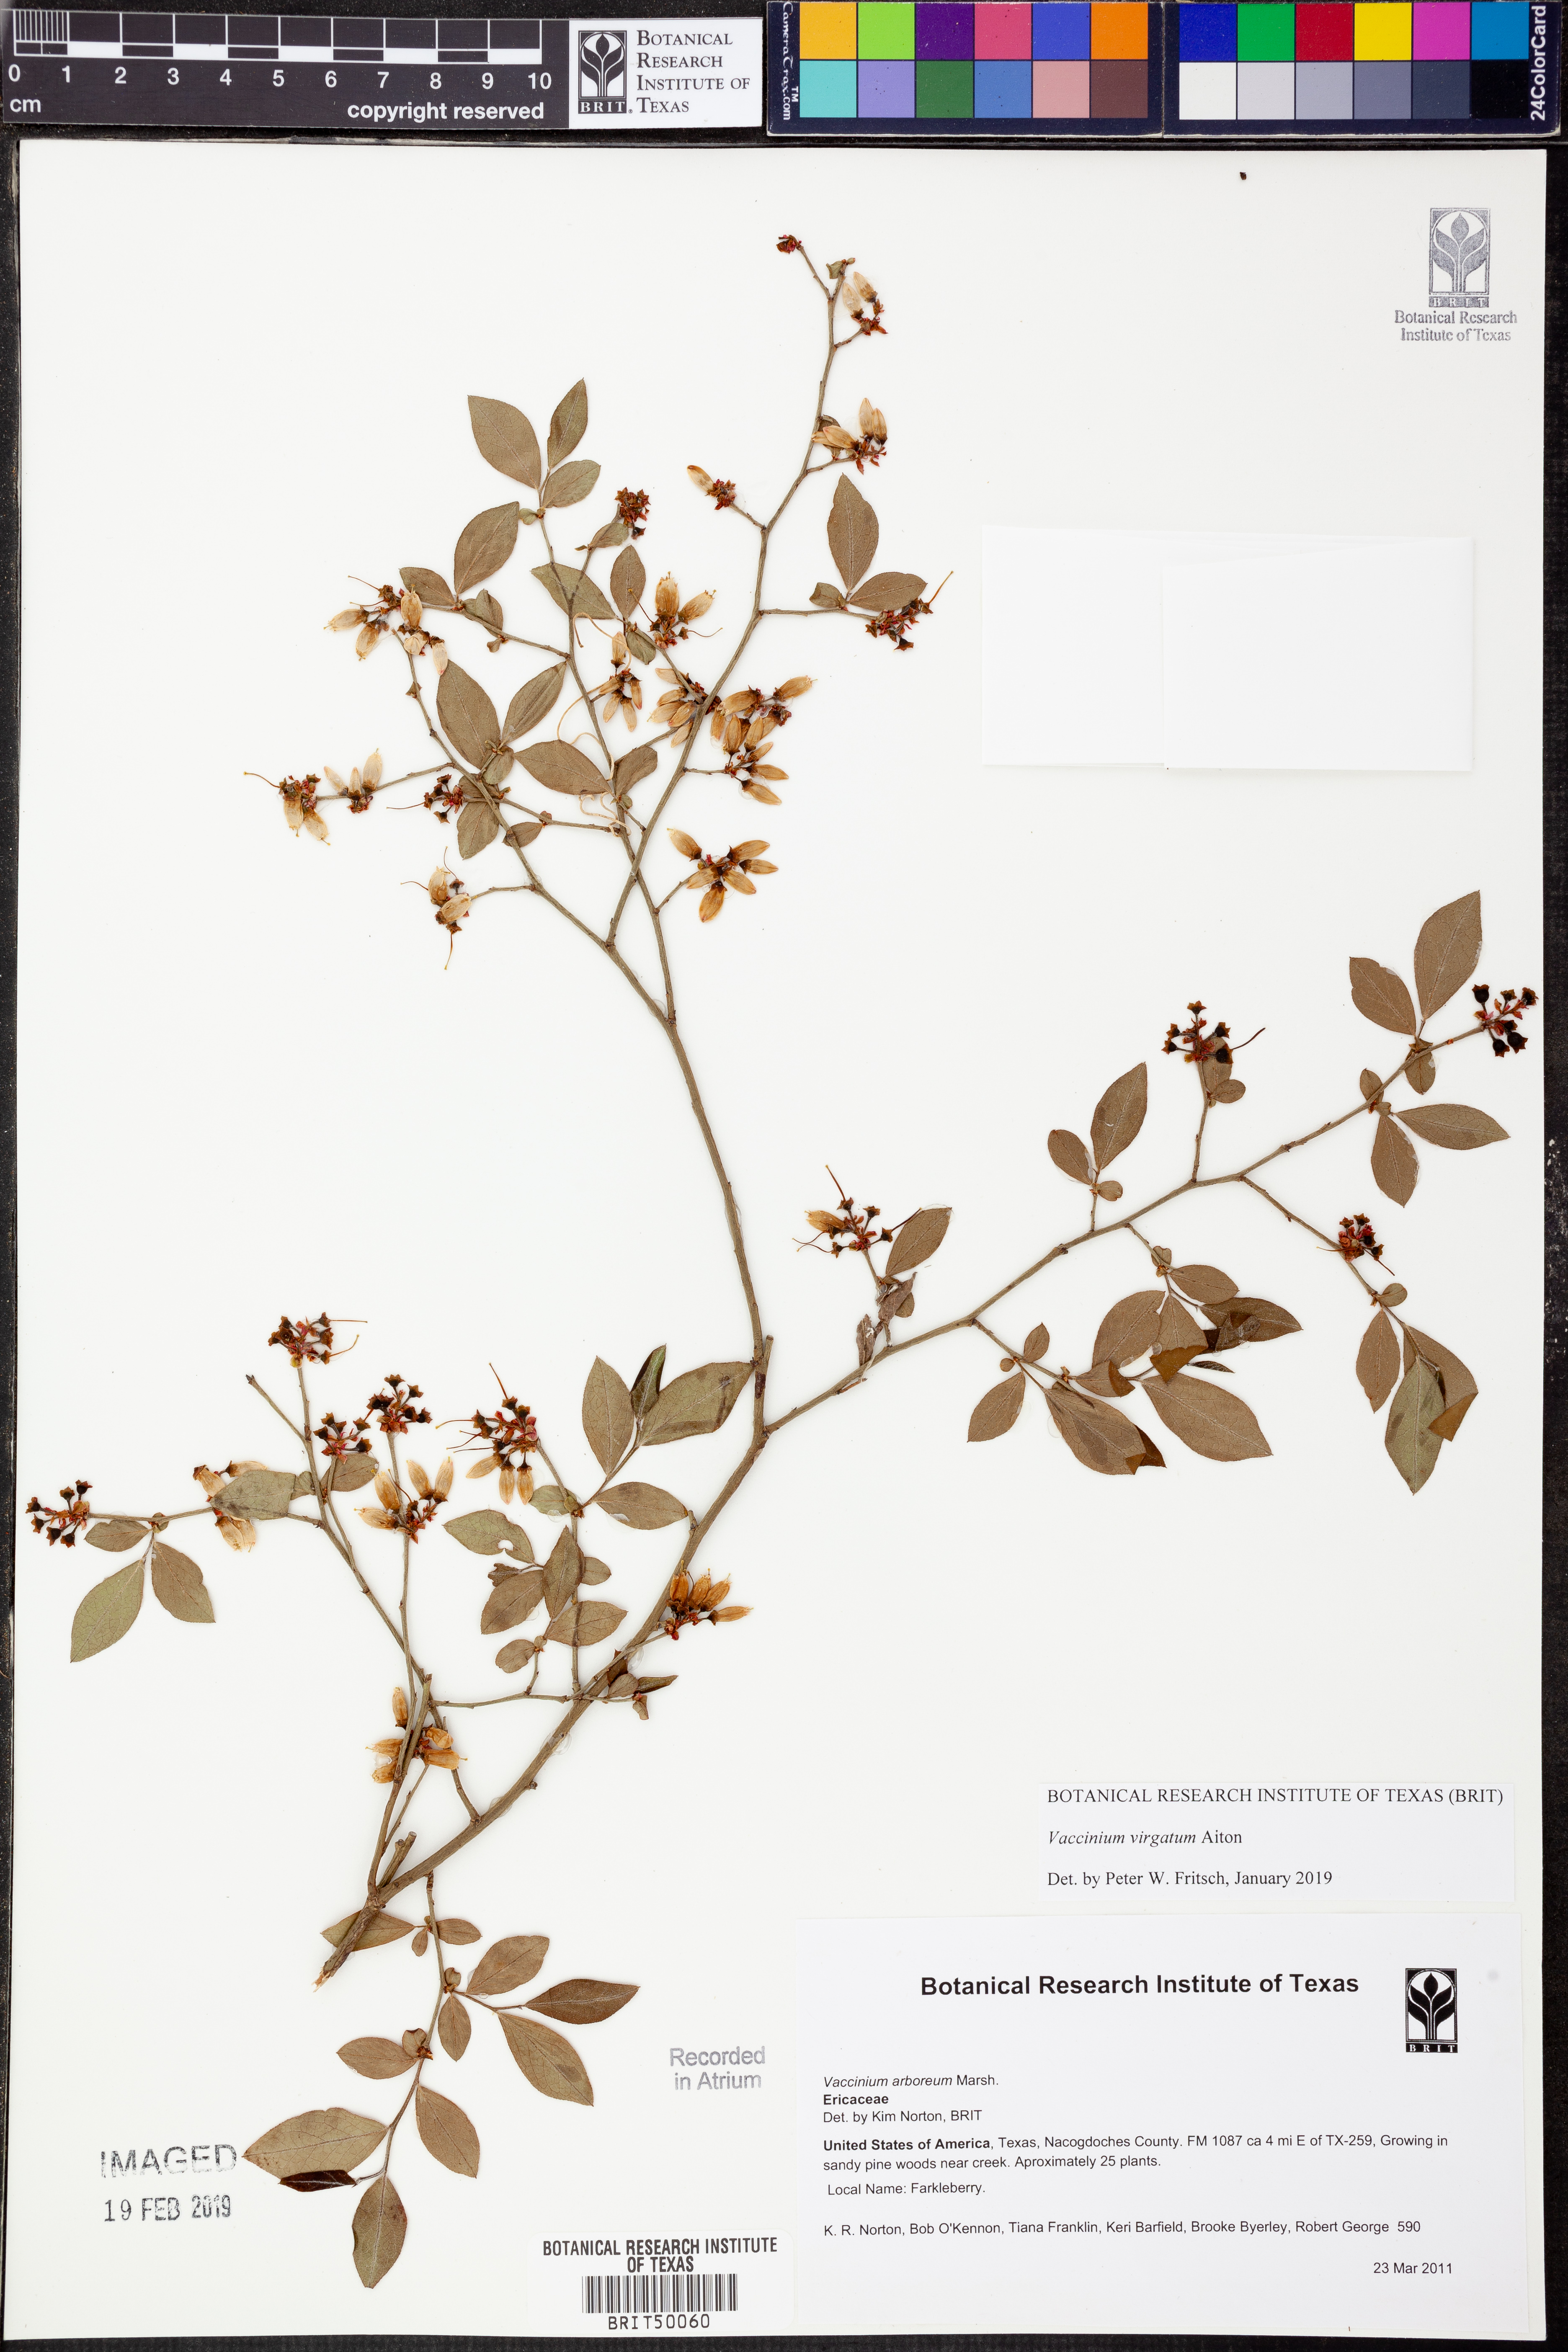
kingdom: Plantae
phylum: Tracheophyta
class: Magnoliopsida
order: Ericales
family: Ericaceae
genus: Vaccinium
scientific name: Vaccinium arboreum
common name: Farkleberry
